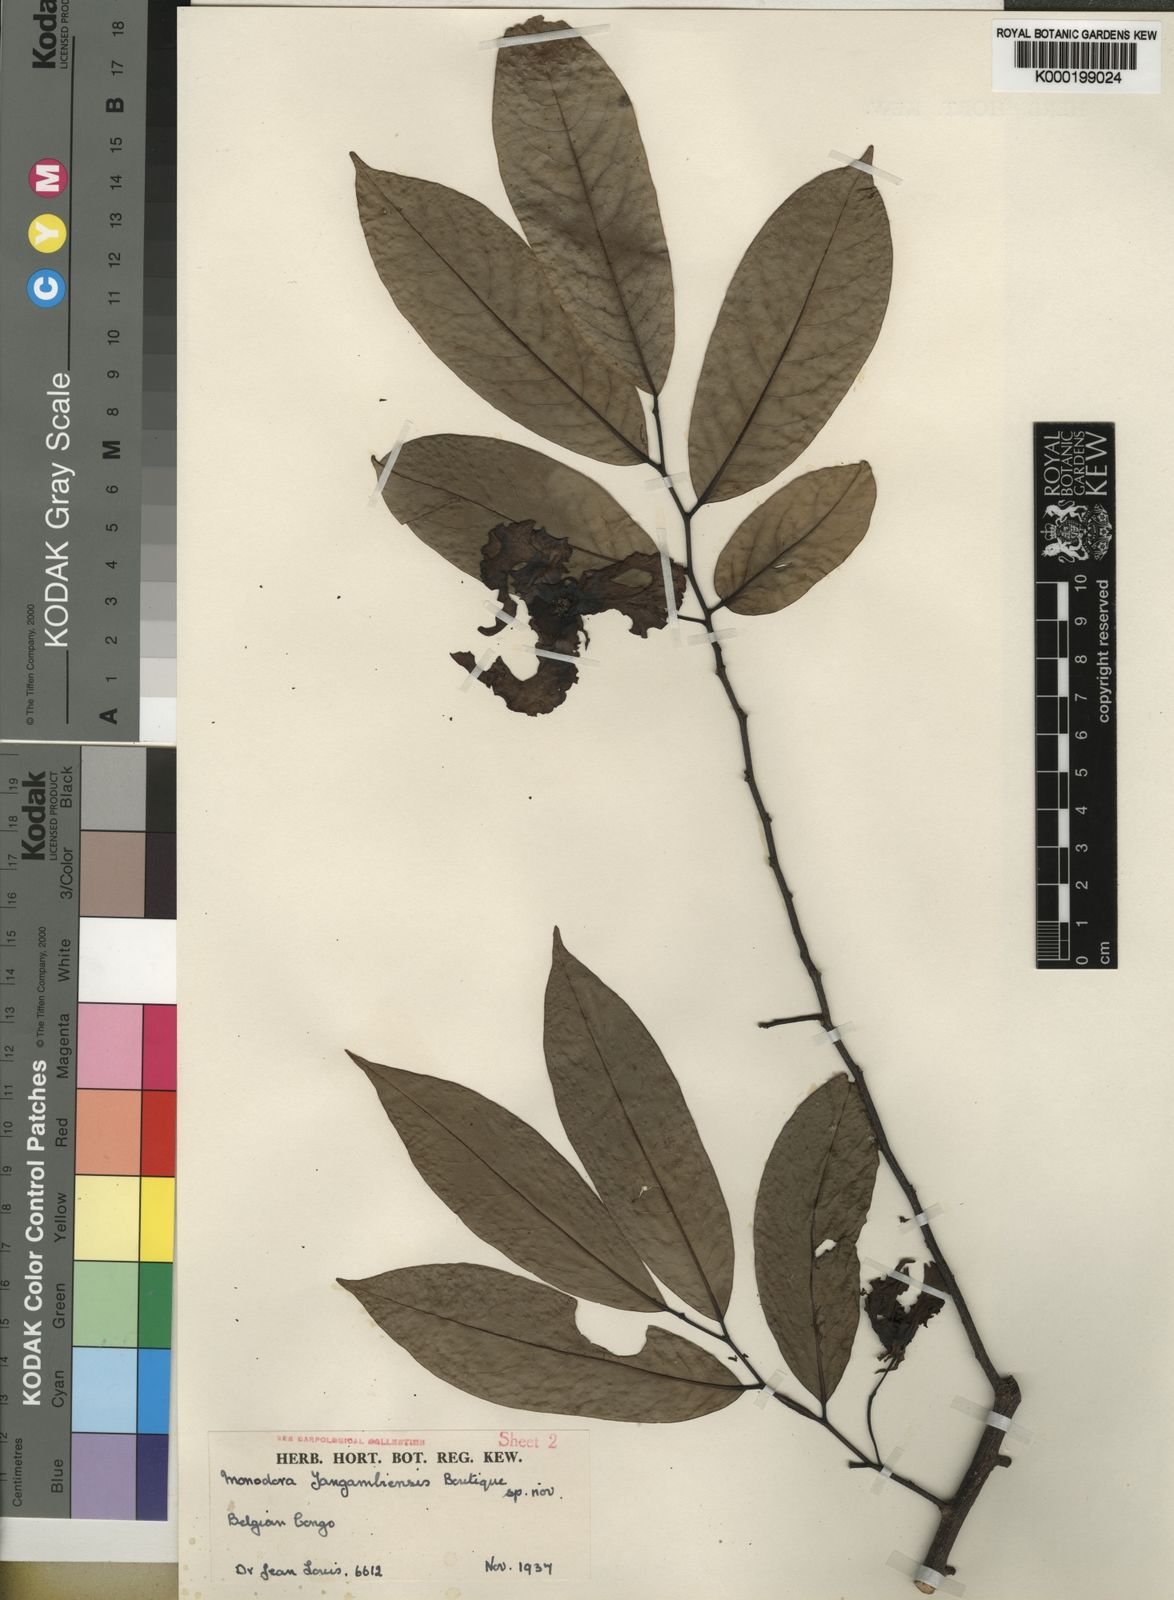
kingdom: Plantae
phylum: Tracheophyta
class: Magnoliopsida
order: Magnoliales
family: Annonaceae
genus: Monodora
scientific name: Monodora angolensis
